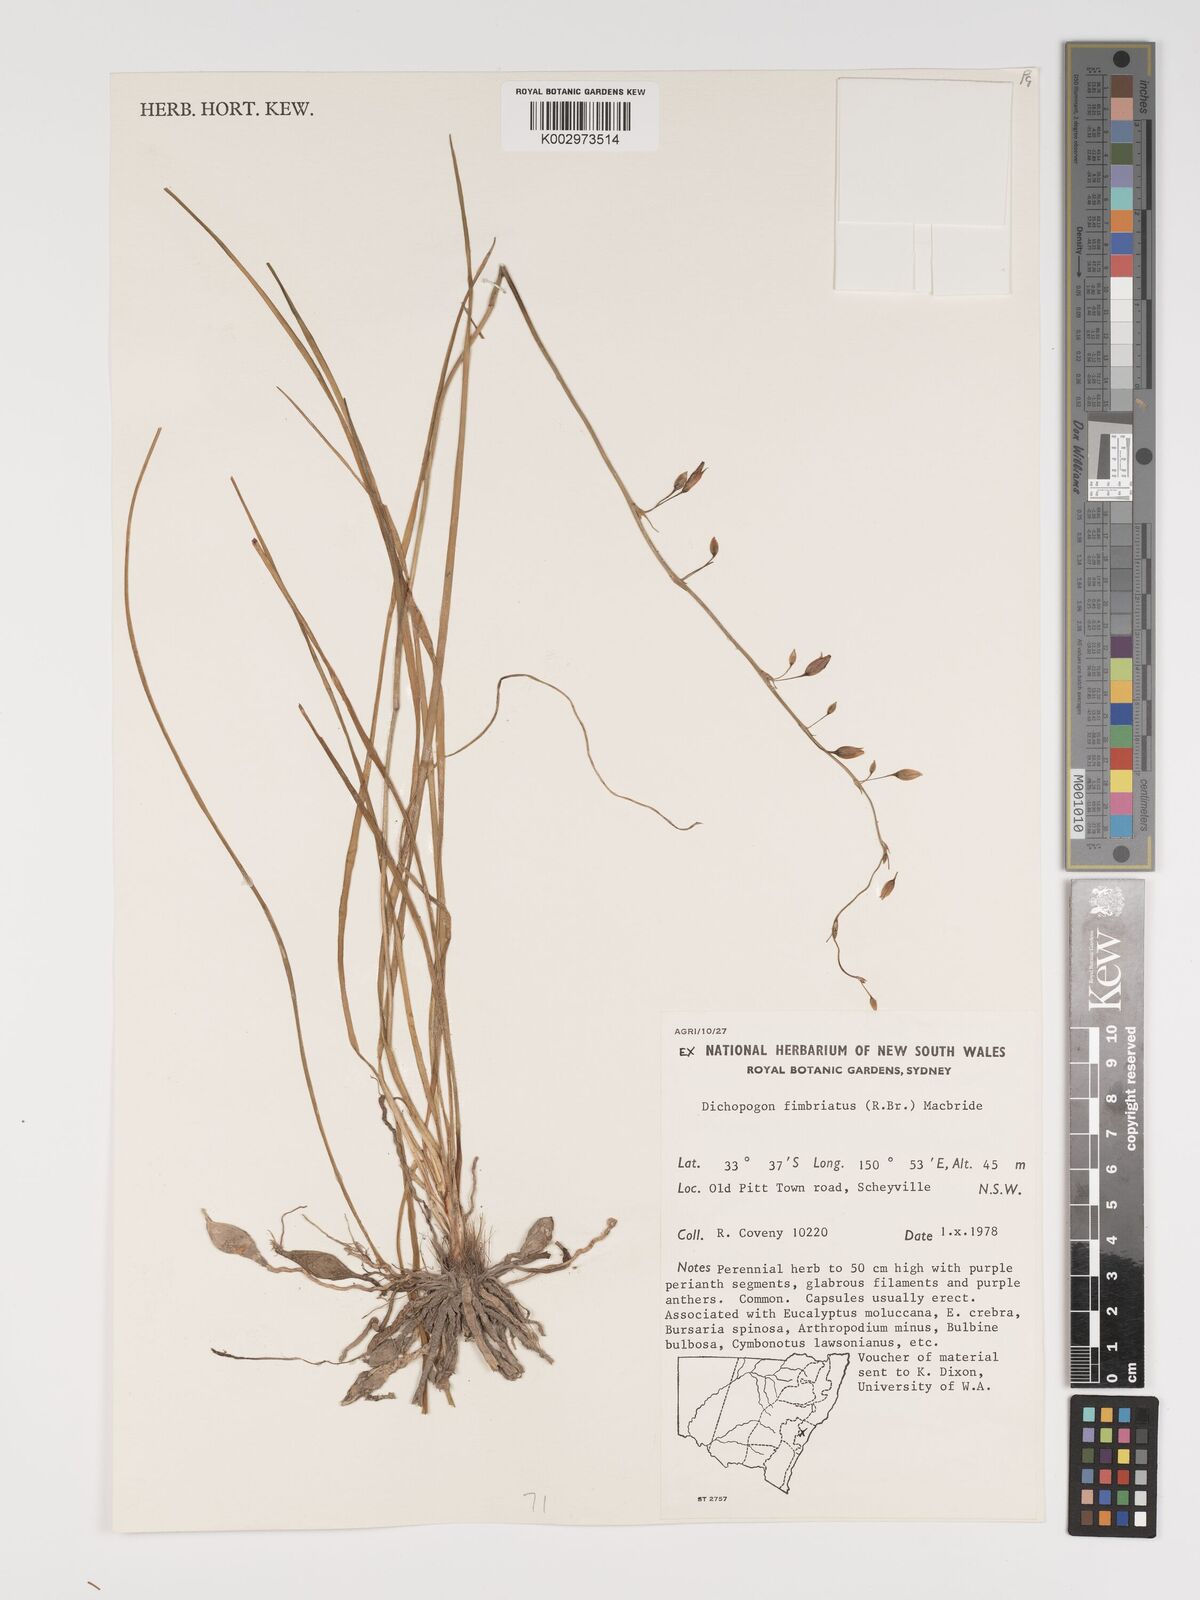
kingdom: Plantae
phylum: Tracheophyta
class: Liliopsida
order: Asparagales
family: Asparagaceae
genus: Dichopogon
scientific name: Dichopogon fimbriatus
